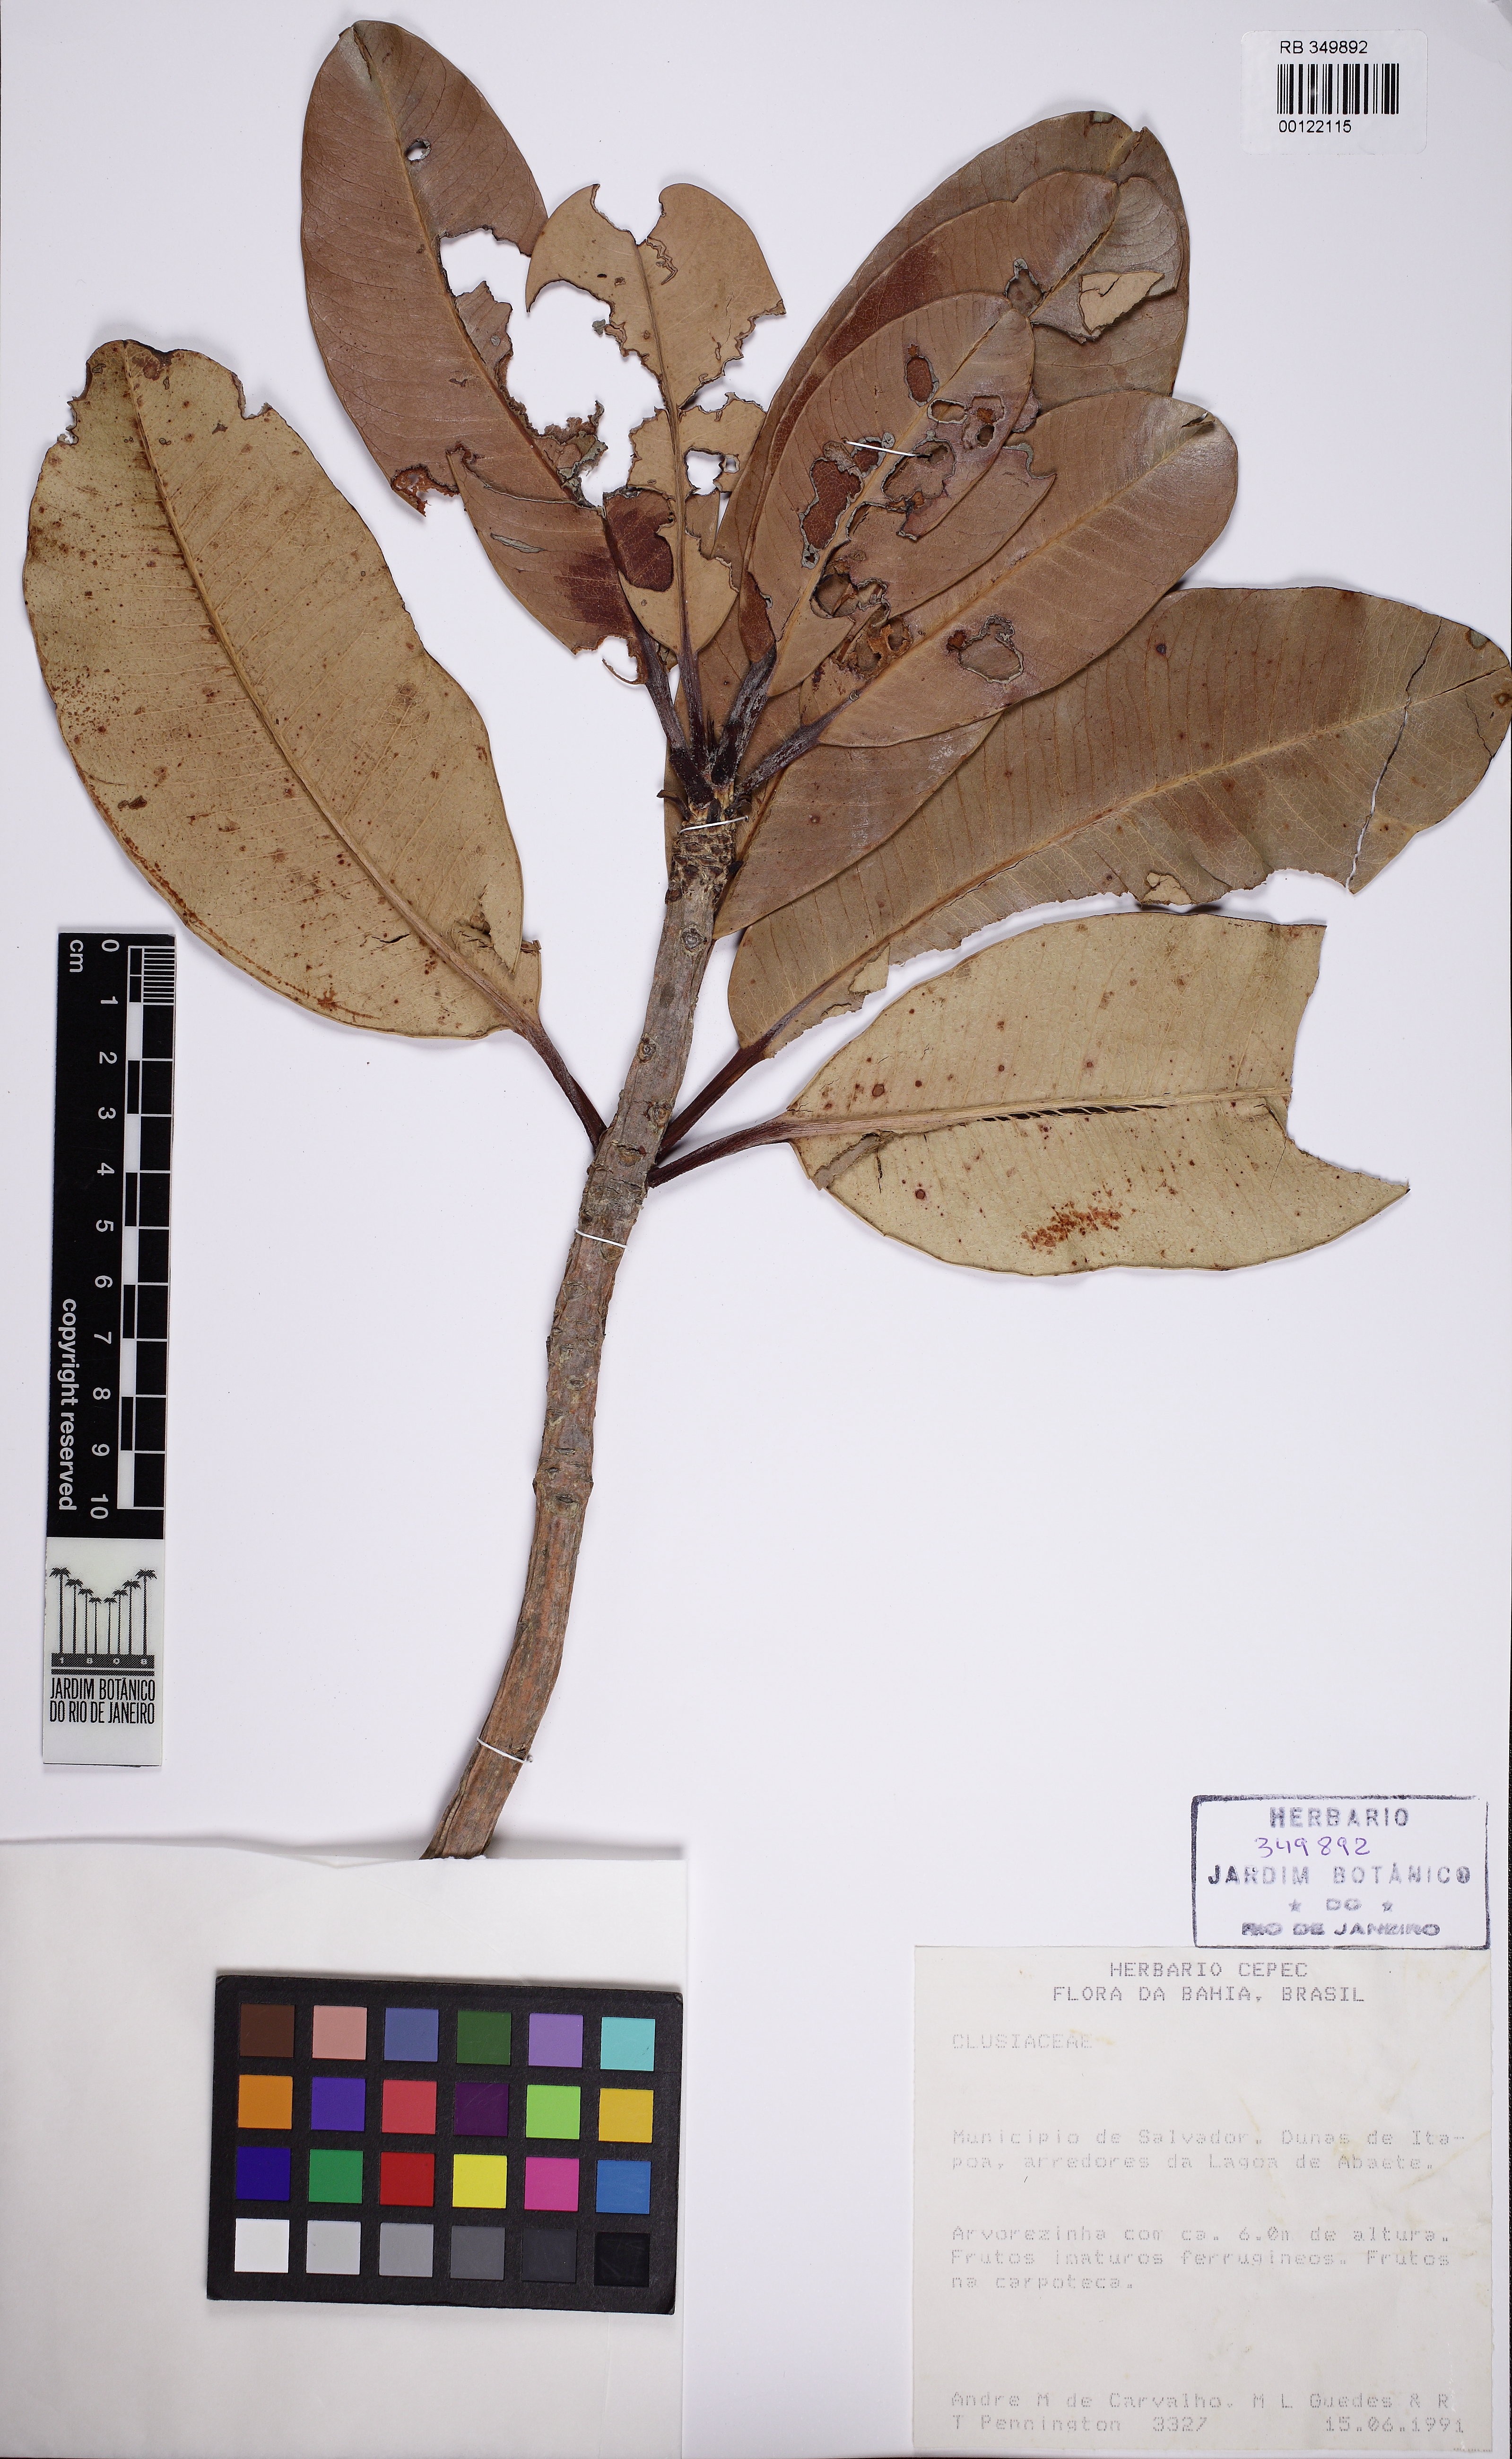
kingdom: Plantae
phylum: Tracheophyta
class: Magnoliopsida
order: Malpighiales
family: Calophyllaceae
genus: Kielmeyera
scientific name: Kielmeyera reticulata
